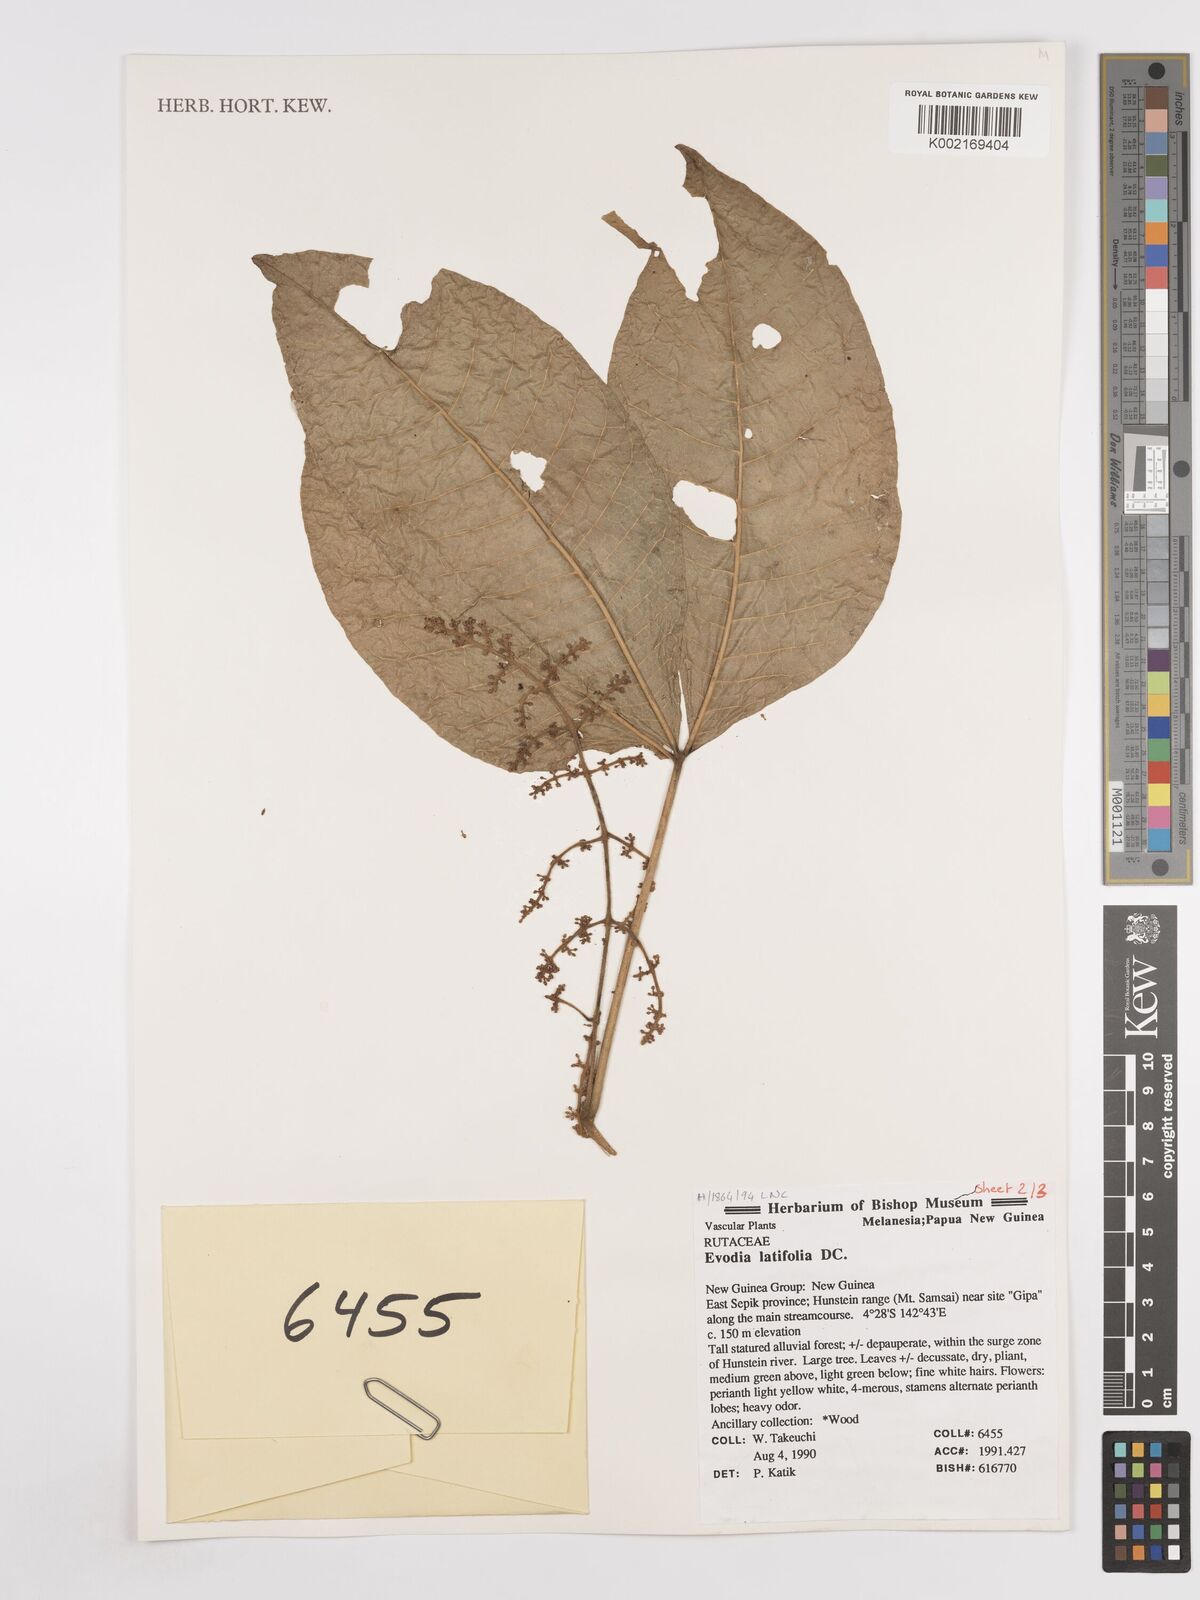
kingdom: Plantae
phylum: Tracheophyta
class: Magnoliopsida
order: Sapindales
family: Rutaceae
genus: Melicope
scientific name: Melicope latifolia
